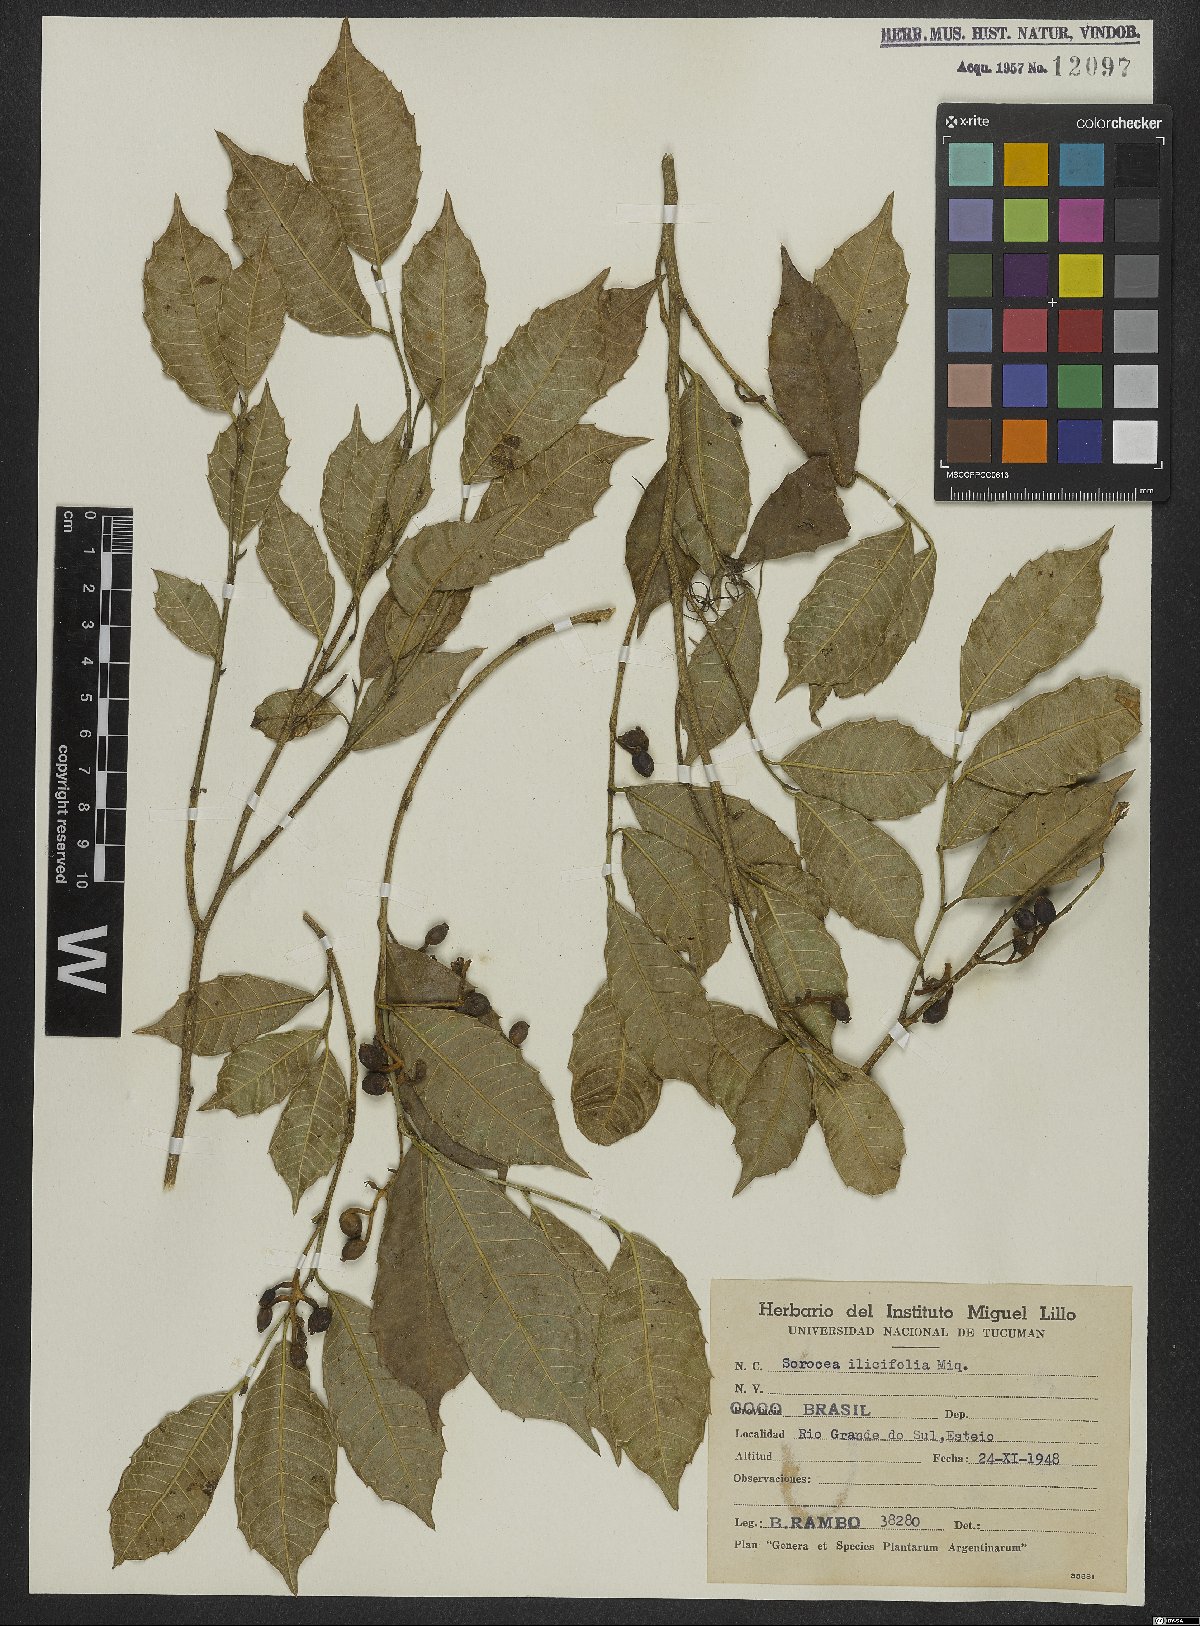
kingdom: Plantae
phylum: Tracheophyta
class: Magnoliopsida
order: Rosales
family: Moraceae
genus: Sorocea
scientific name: Sorocea
